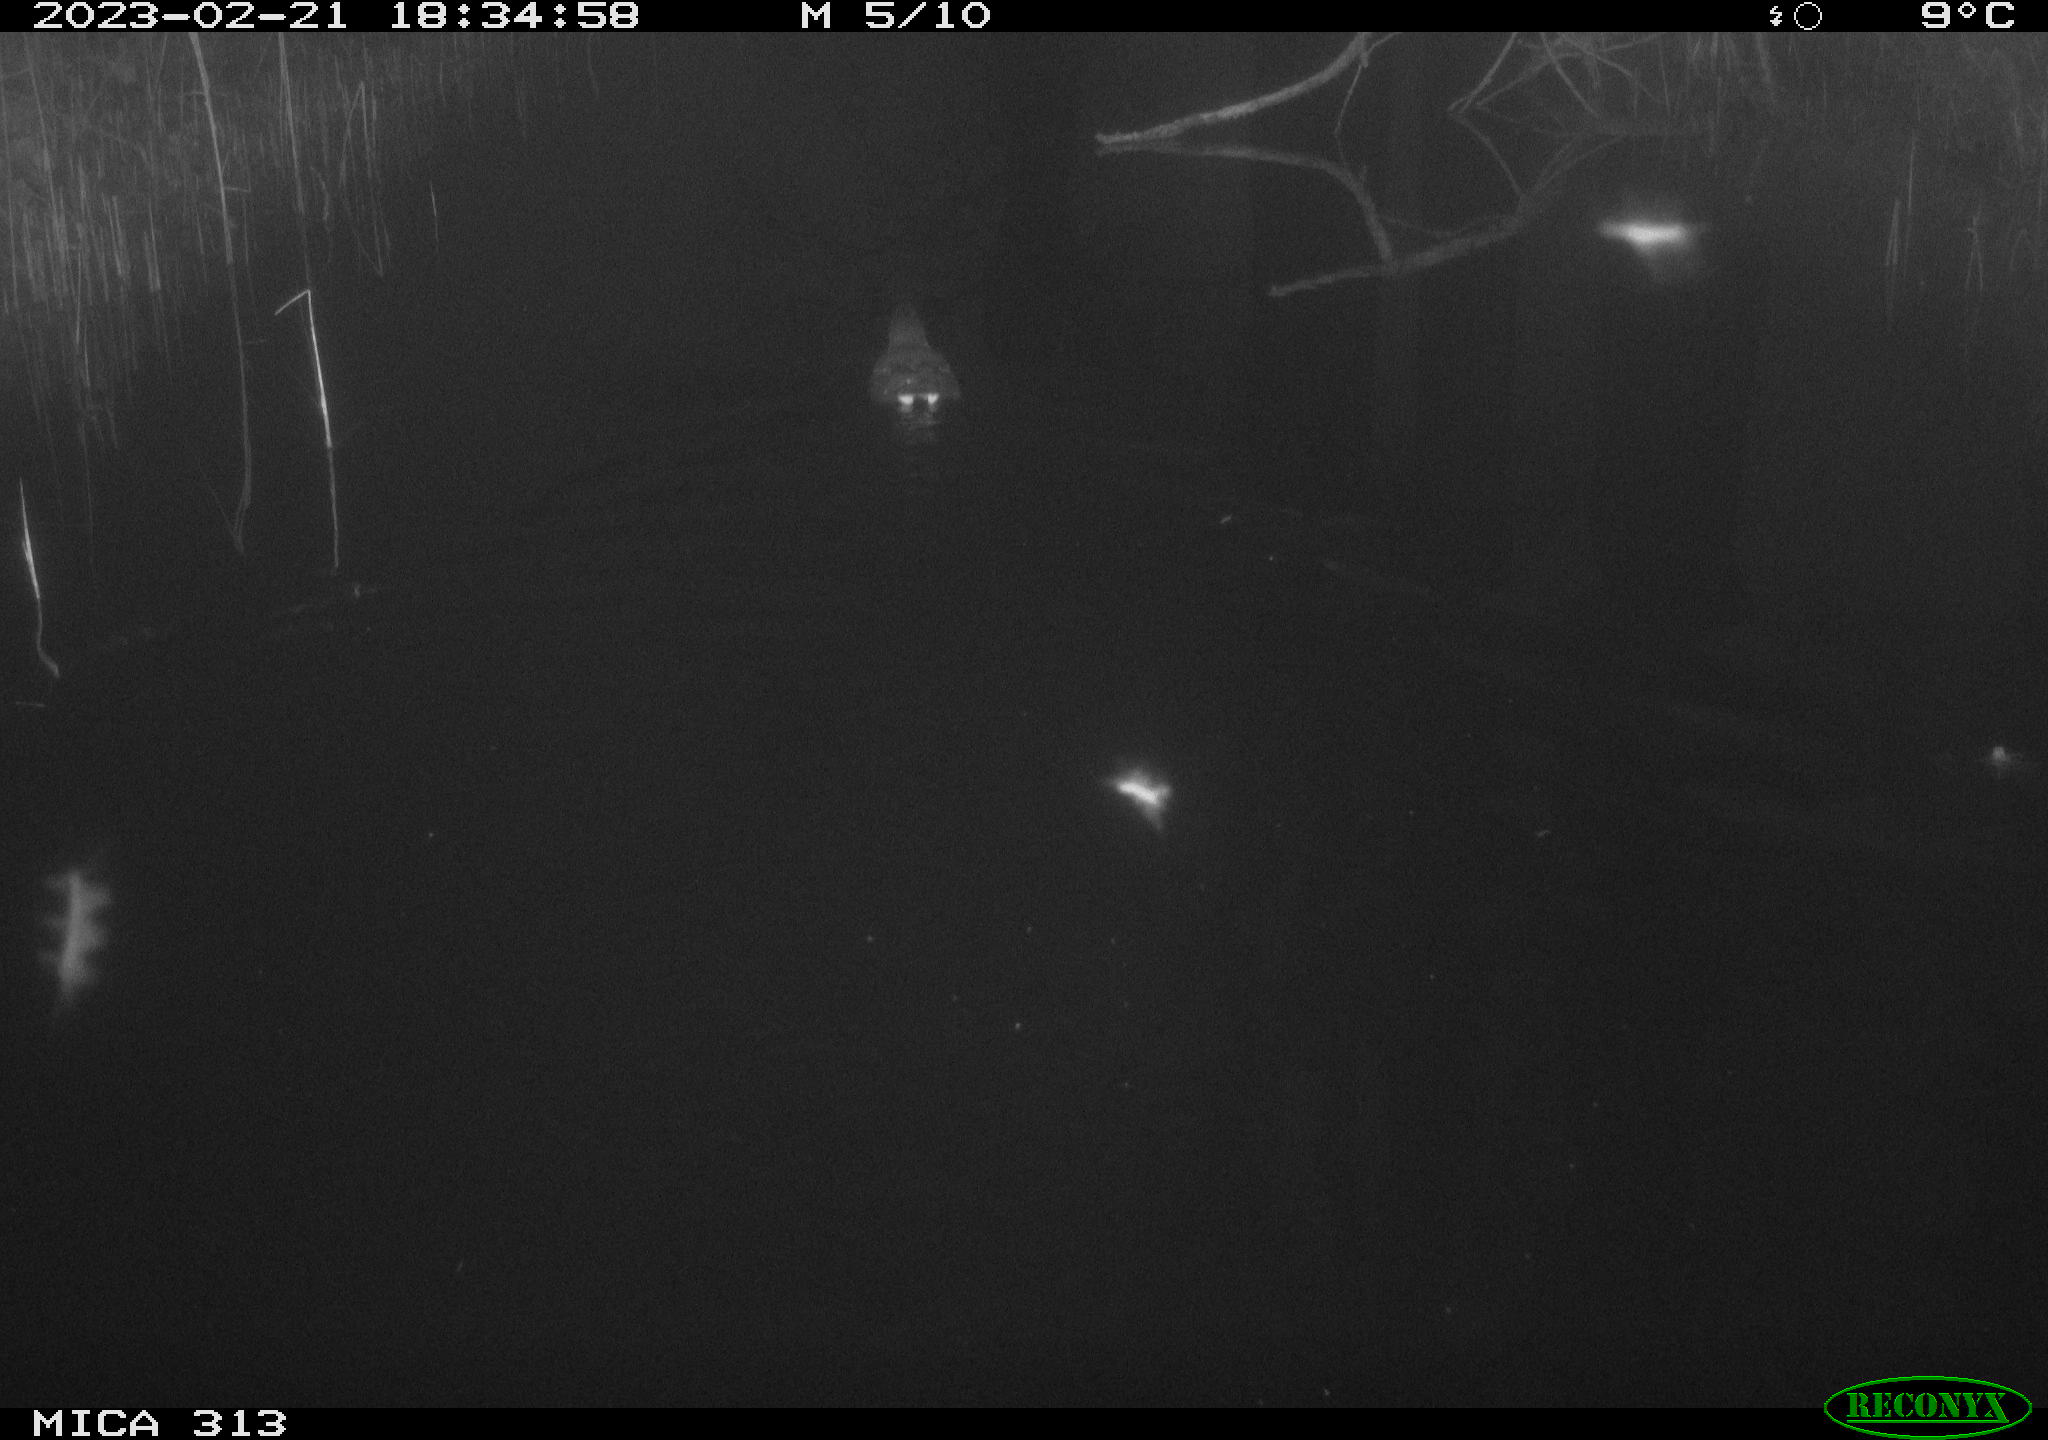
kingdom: Animalia
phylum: Chordata
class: Aves
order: Gruiformes
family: Rallidae
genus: Gallinula
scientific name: Gallinula chloropus
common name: Common moorhen
